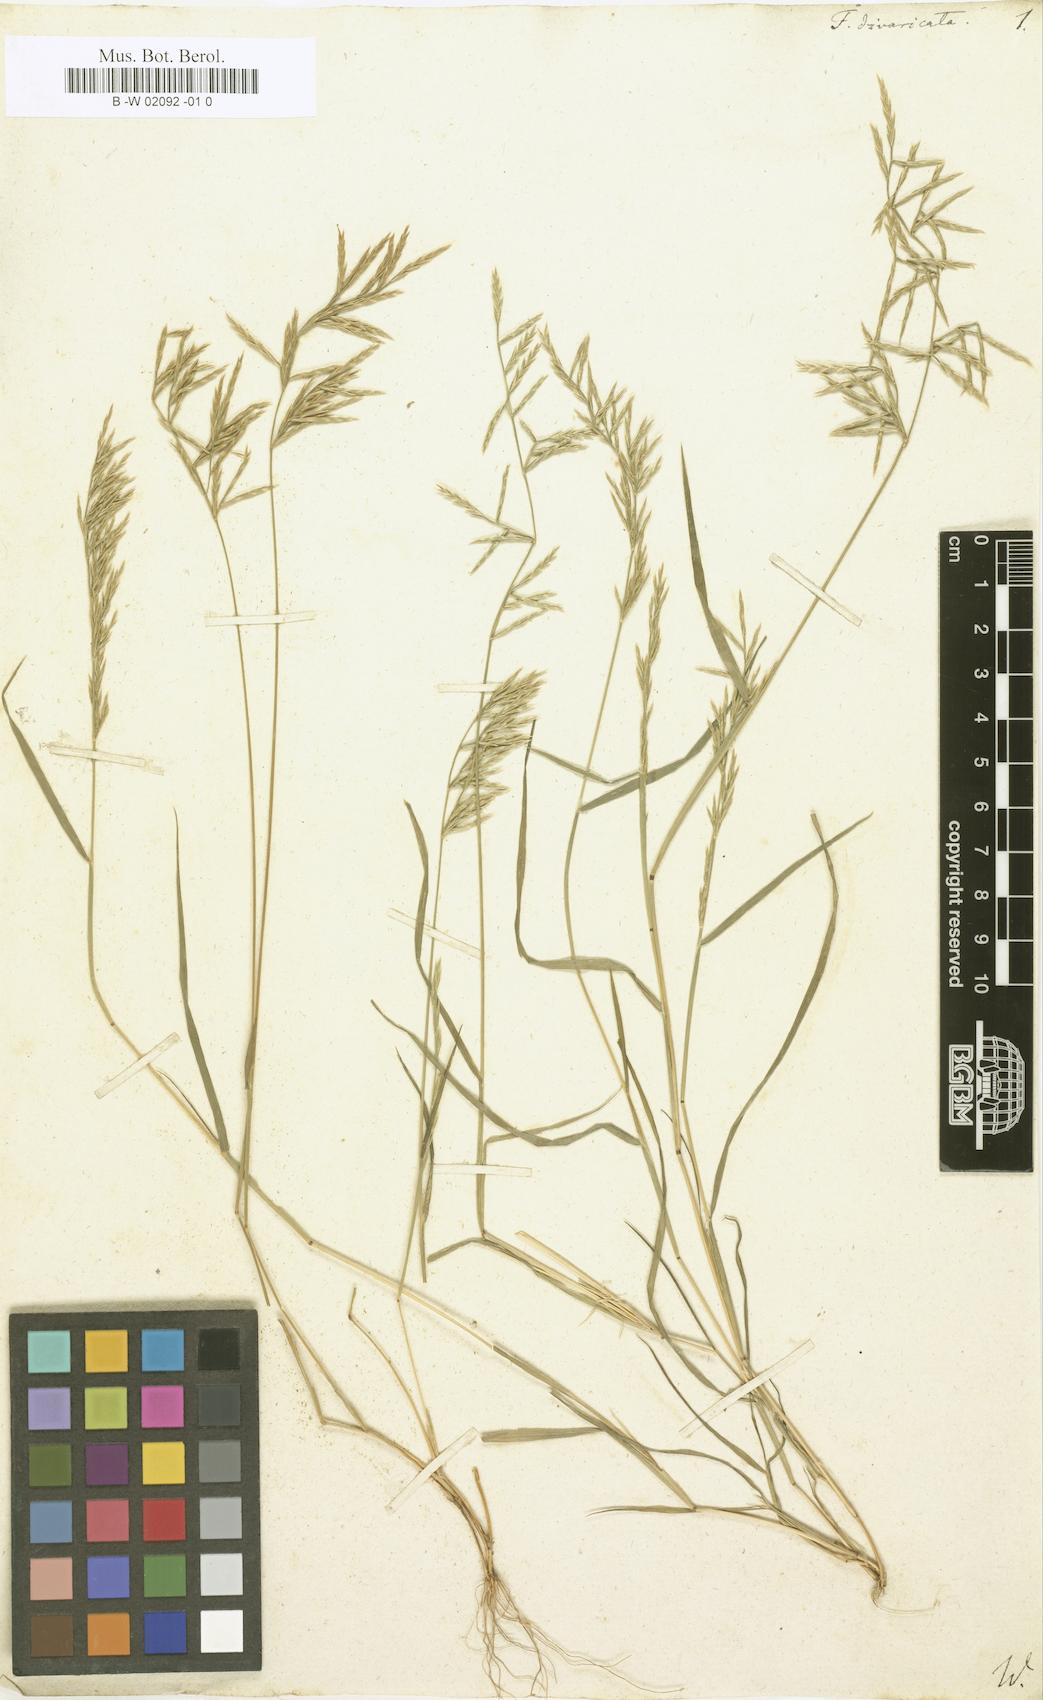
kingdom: Plantae
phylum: Tracheophyta
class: Liliopsida
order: Poales
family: Poaceae
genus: Festuca
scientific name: Festuca divaricata
